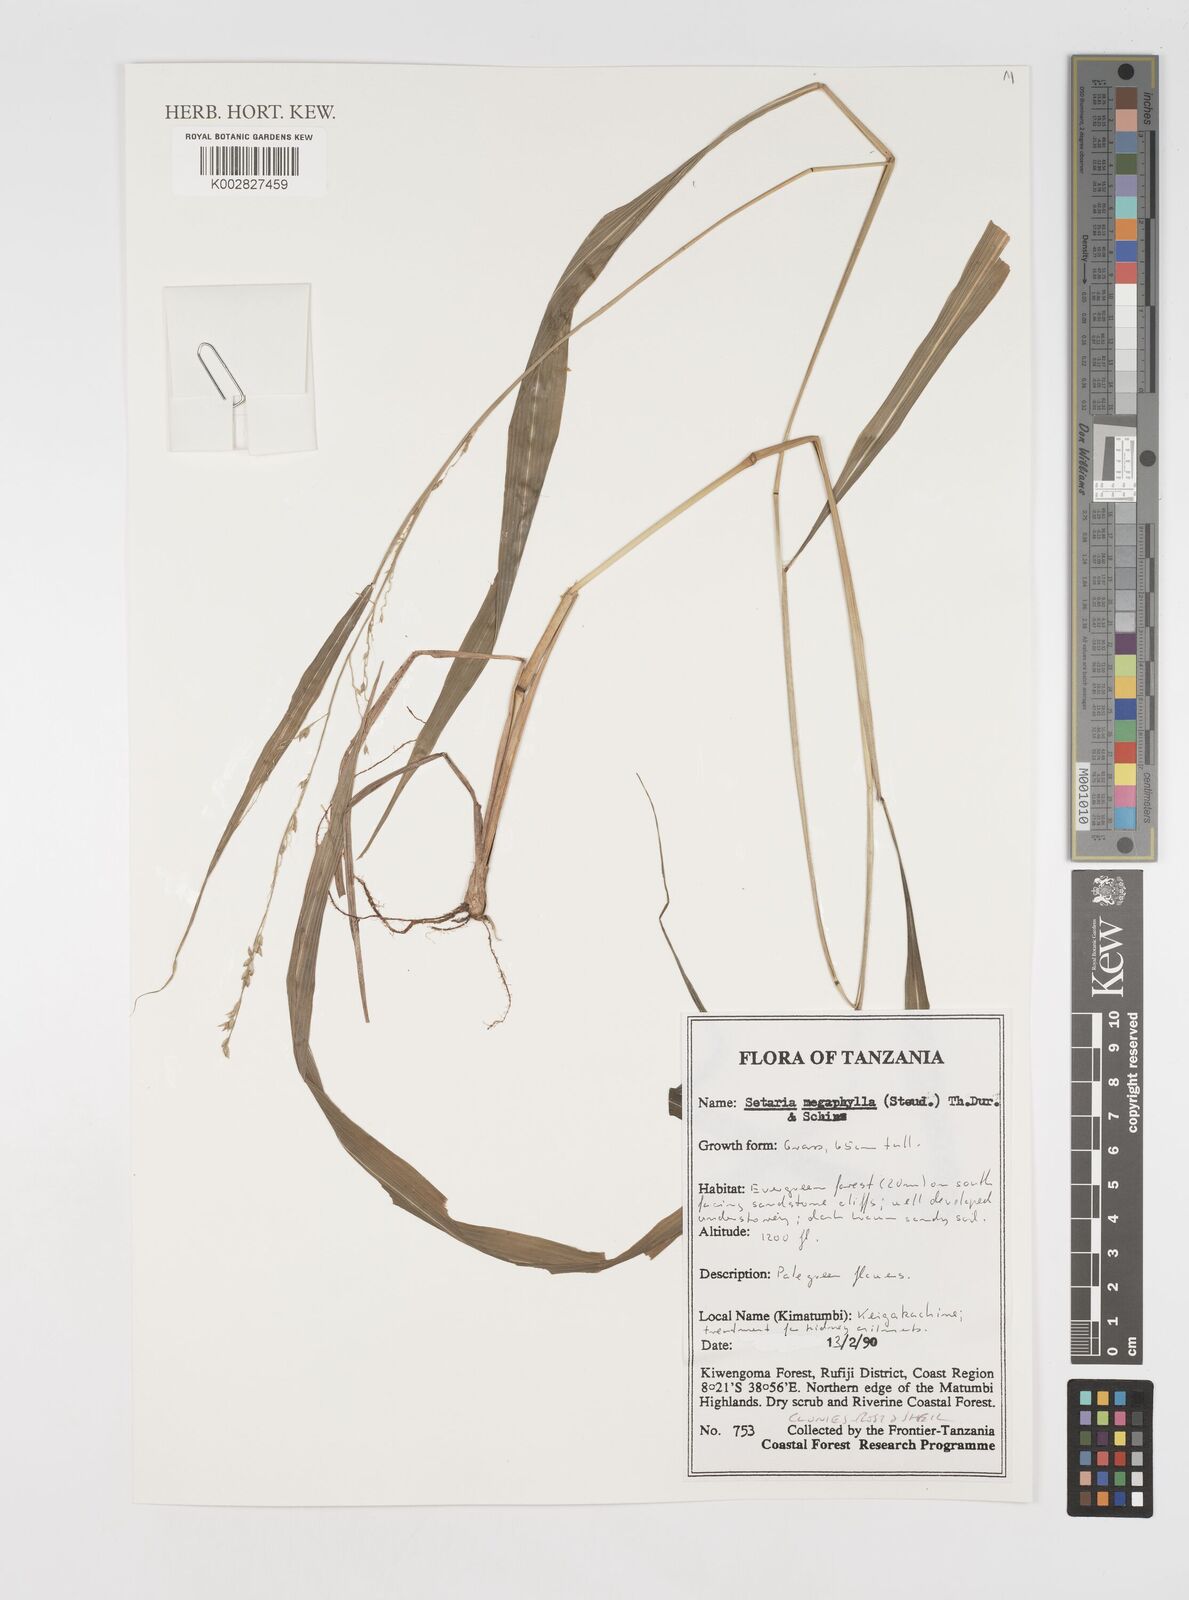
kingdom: Plantae
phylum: Tracheophyta
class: Liliopsida
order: Poales
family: Poaceae
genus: Setaria
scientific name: Setaria megaphylla
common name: Bigleaf bristlegrass
